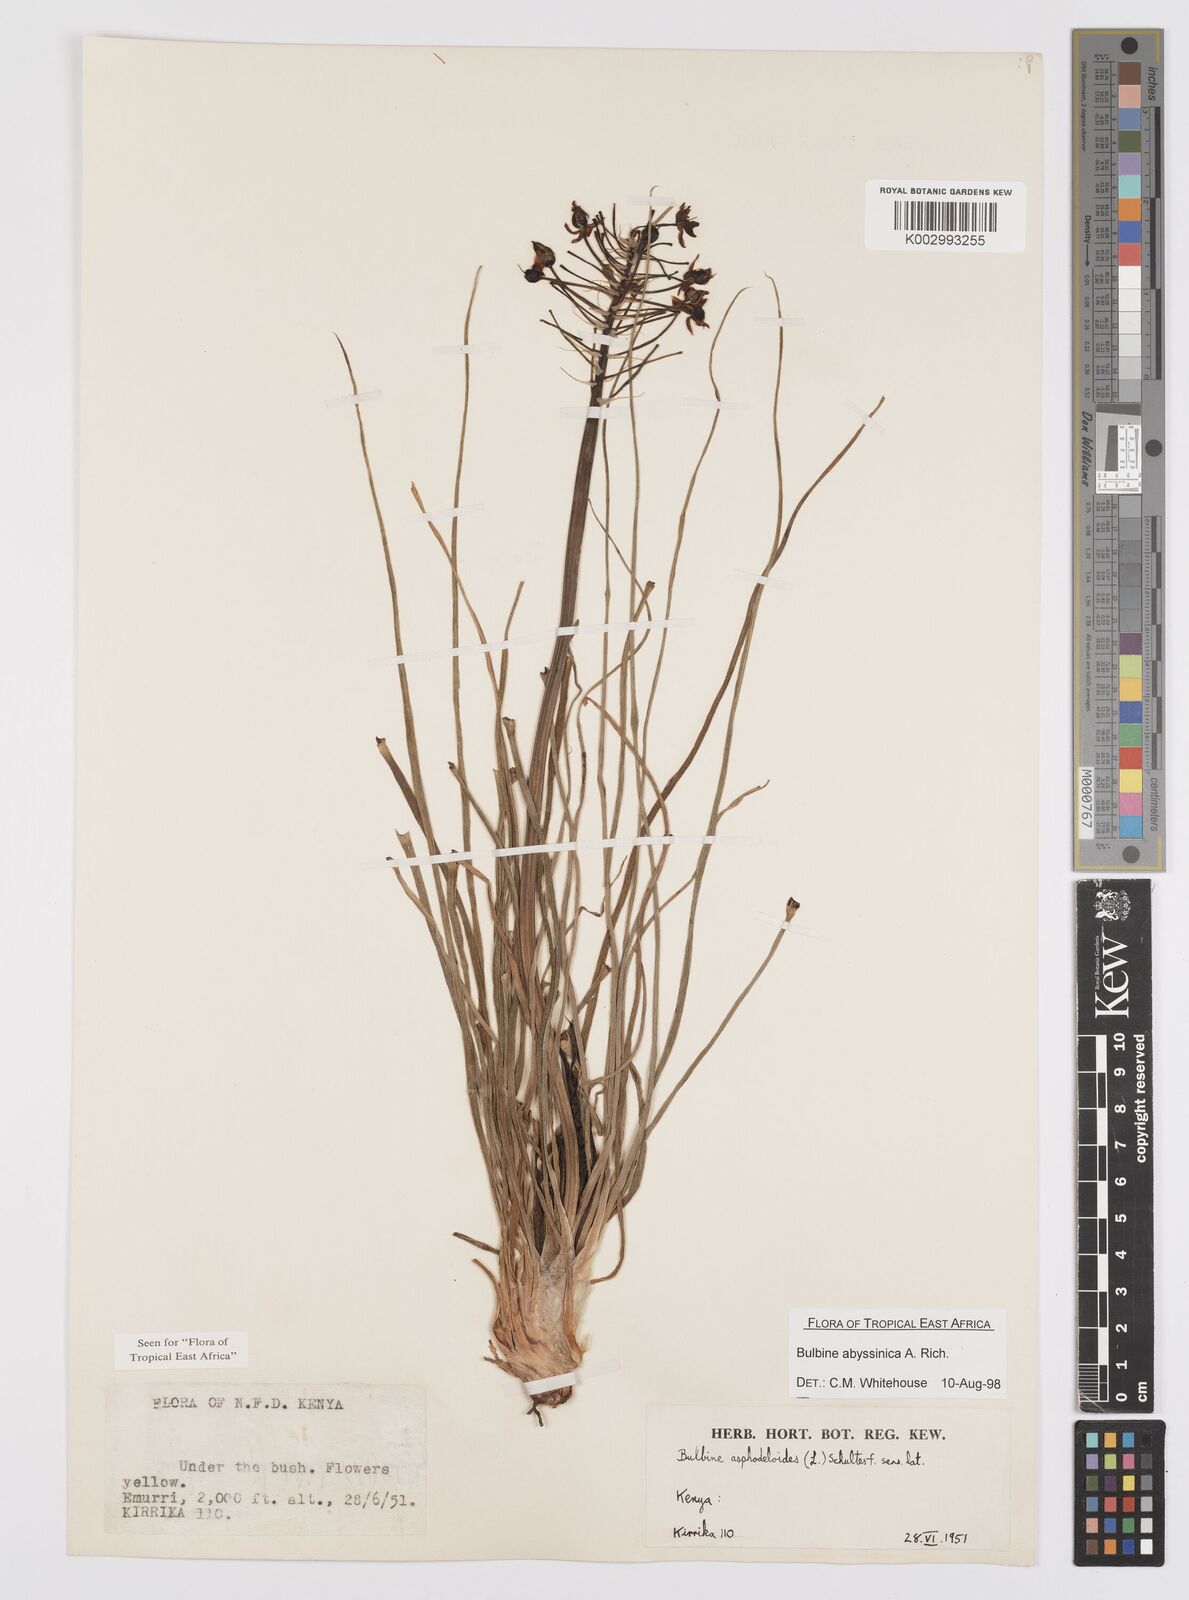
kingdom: Plantae
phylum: Tracheophyta
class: Liliopsida
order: Asparagales
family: Asphodelaceae
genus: Bulbine
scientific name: Bulbine abyssinica
